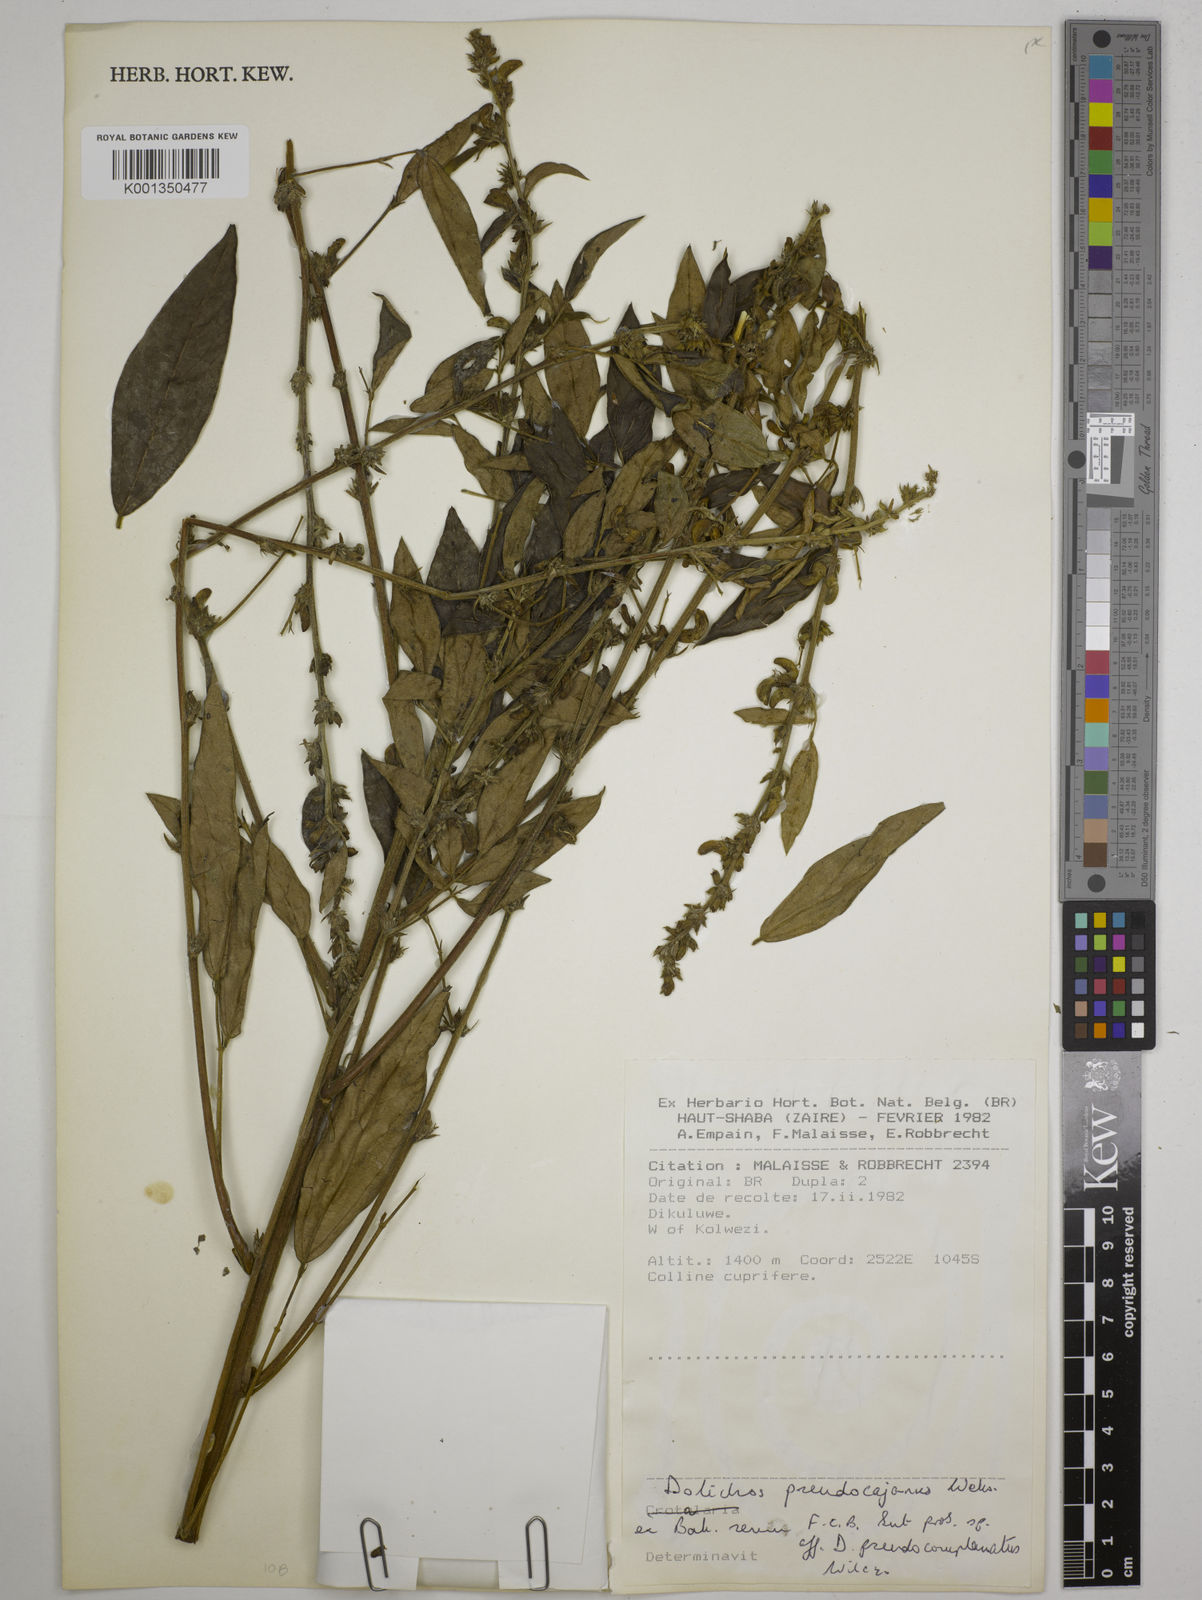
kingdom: Plantae
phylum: Tracheophyta
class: Magnoliopsida
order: Fabales
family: Fabaceae
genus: Dolichos
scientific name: Dolichos pseudocajanus
